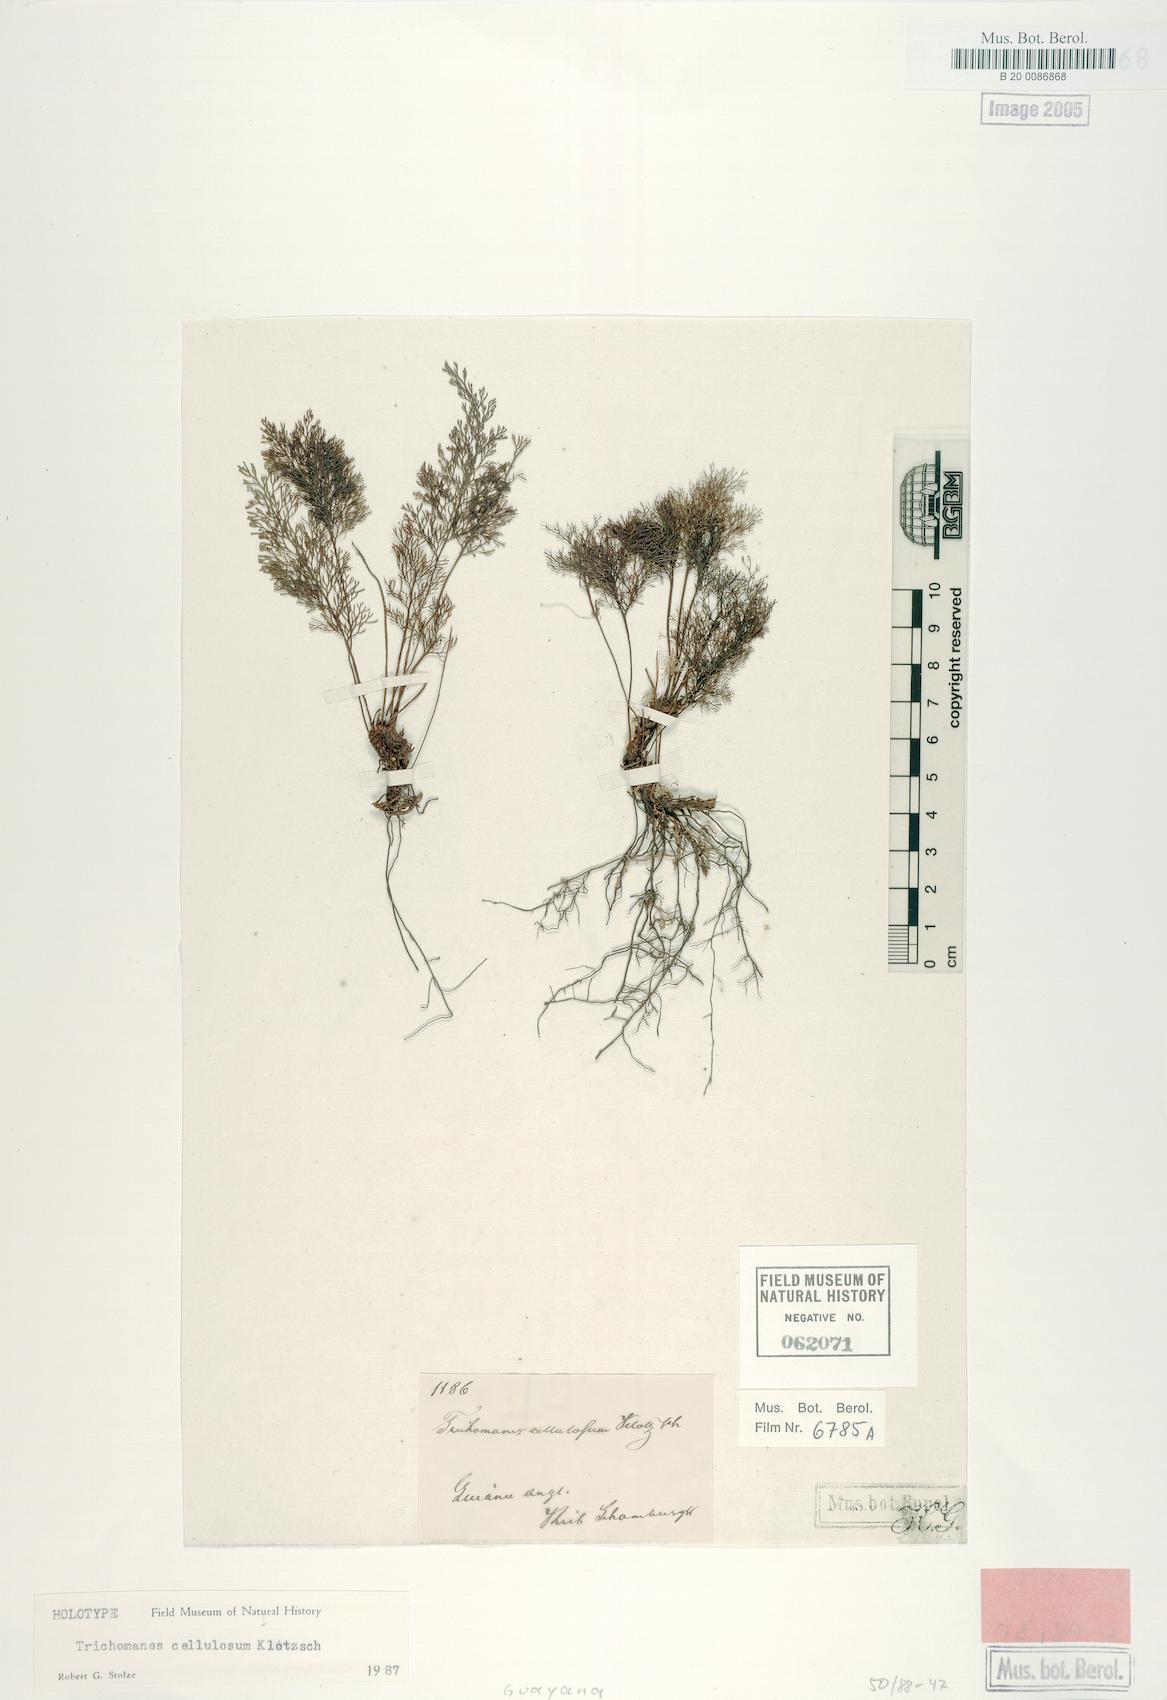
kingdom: Plantae
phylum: Tracheophyta
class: Polypodiopsida
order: Hymenophyllales
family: Hymenophyllaceae
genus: Abrodictyum
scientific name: Abrodictyum cellulosum
